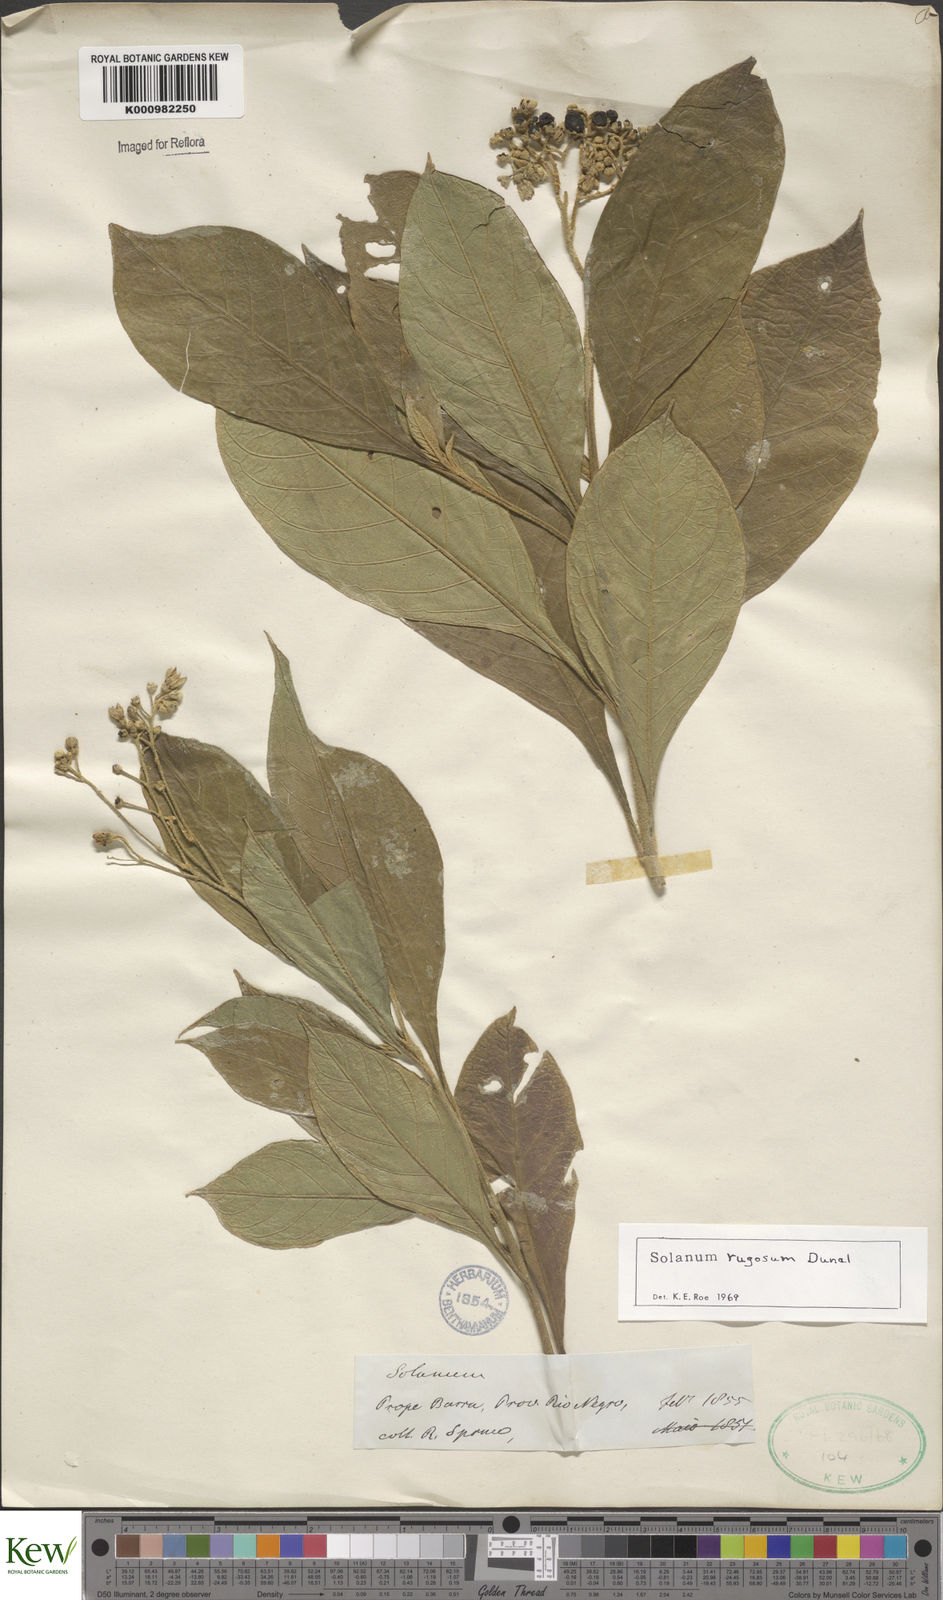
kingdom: Plantae
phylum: Tracheophyta
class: Magnoliopsida
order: Solanales
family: Solanaceae
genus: Solanum
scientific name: Solanum rugosum
